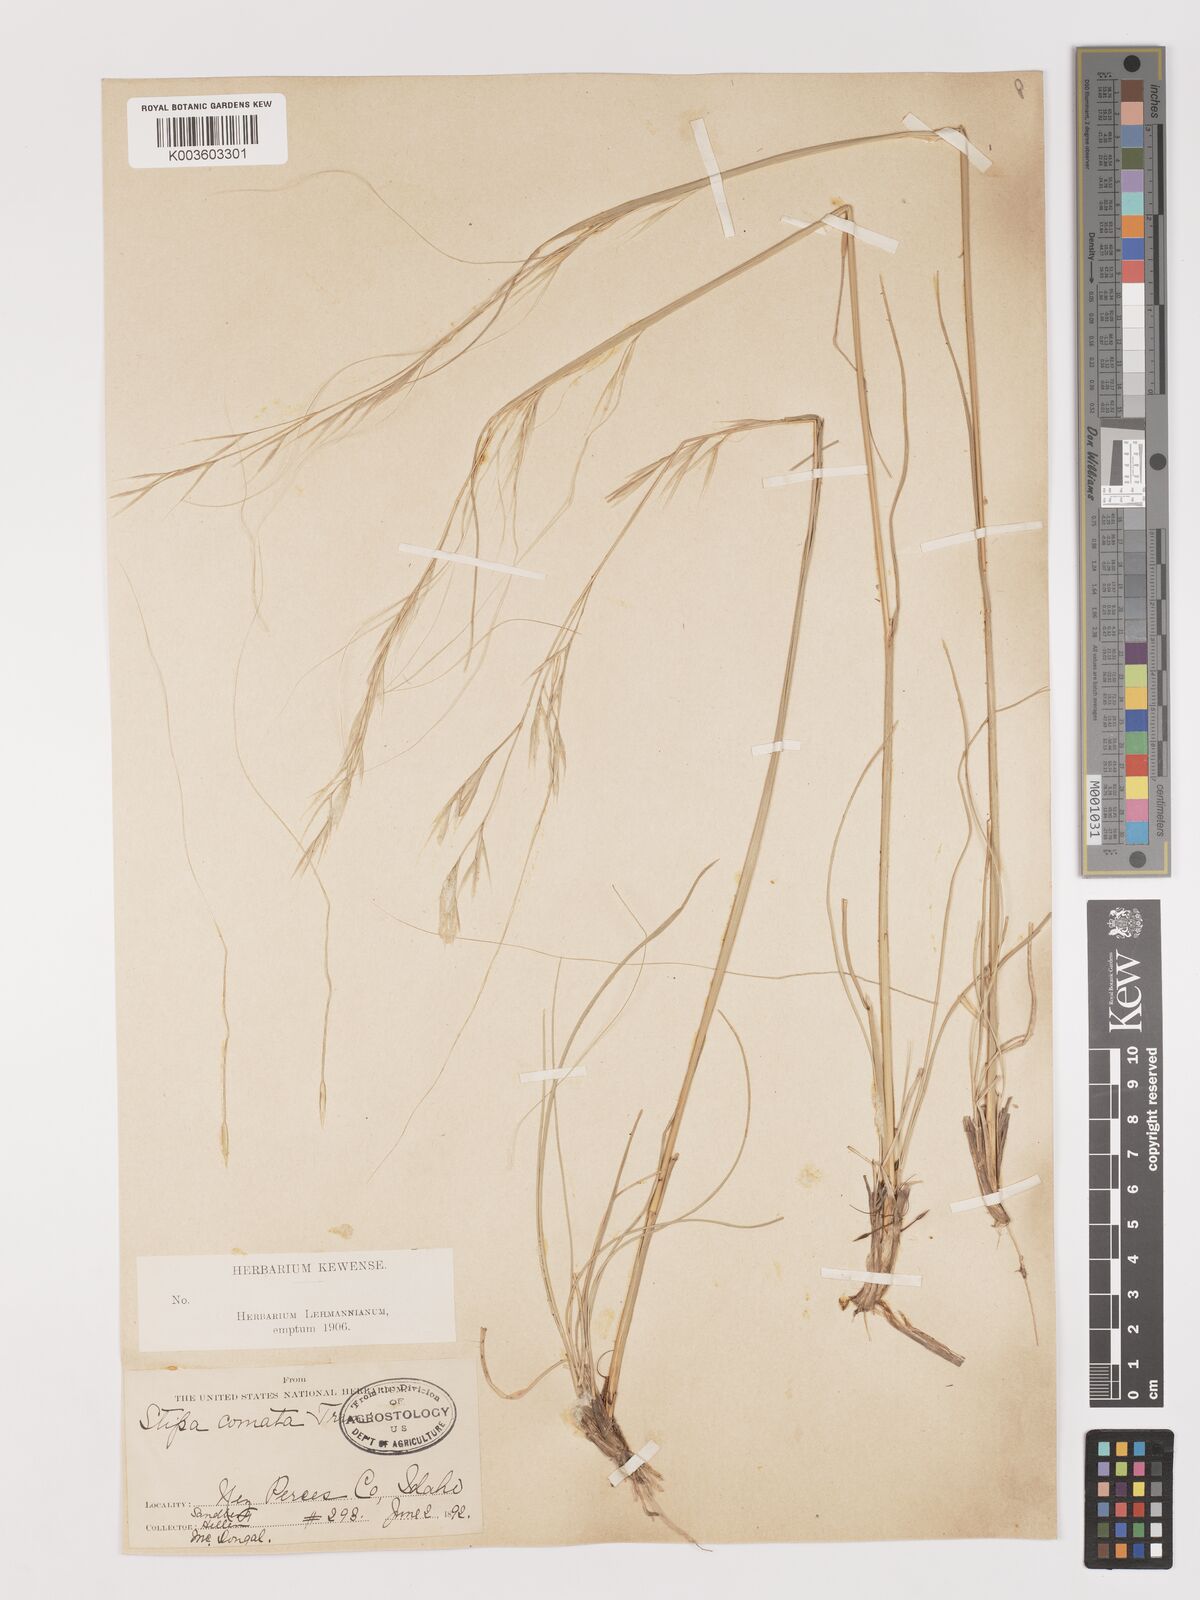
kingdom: Plantae
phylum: Tracheophyta
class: Liliopsida
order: Poales
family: Poaceae
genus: Stipa
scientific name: Stipa
